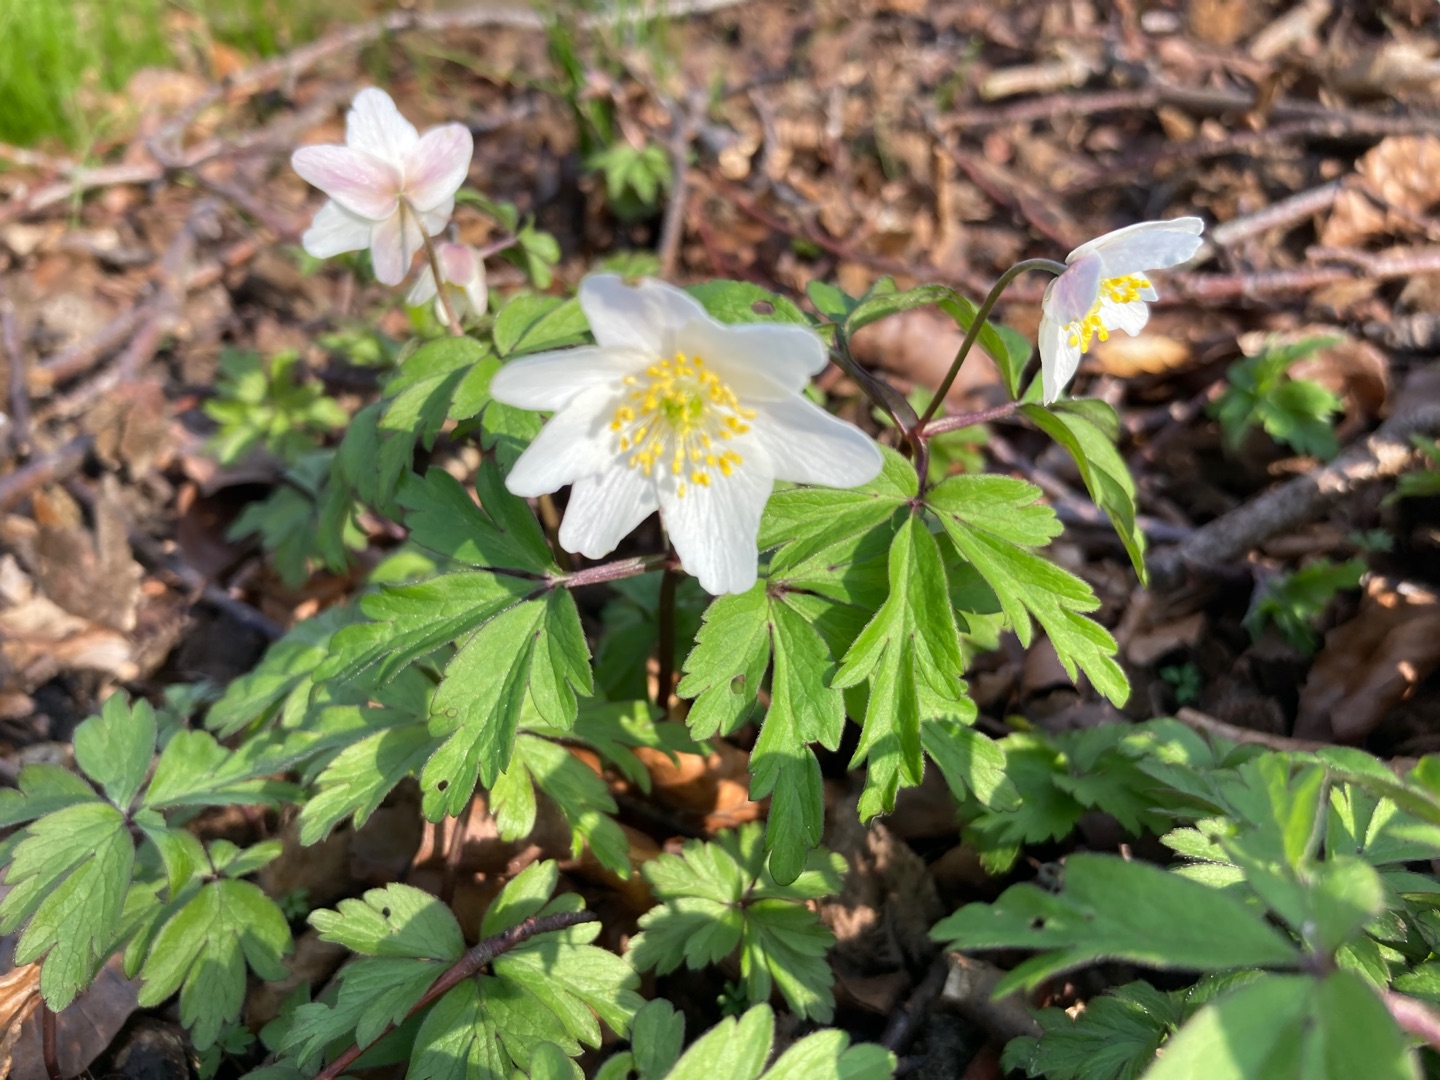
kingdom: Plantae
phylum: Tracheophyta
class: Magnoliopsida
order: Ranunculales
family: Ranunculaceae
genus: Anemone
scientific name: Anemone nemorosa
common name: Hvid anemone
